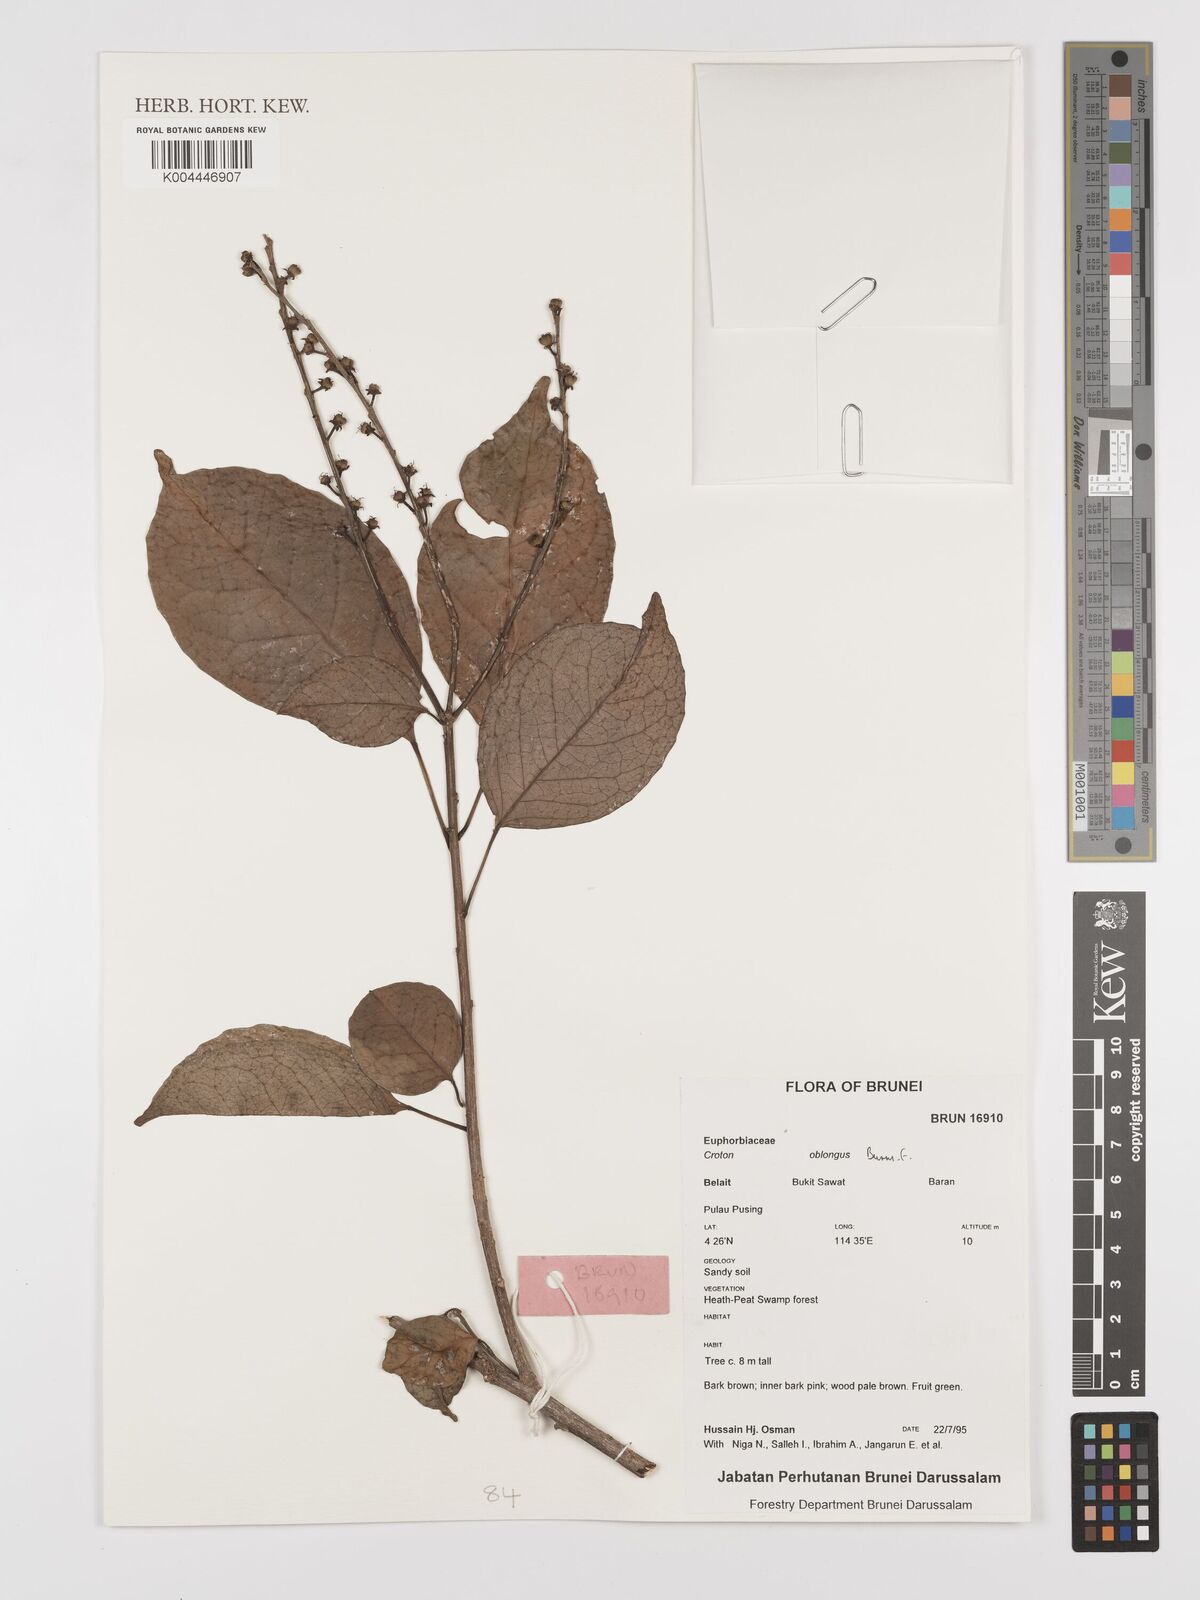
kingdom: Plantae
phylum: Tracheophyta
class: Magnoliopsida
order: Malpighiales
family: Euphorbiaceae
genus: Croton
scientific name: Croton oblongus
